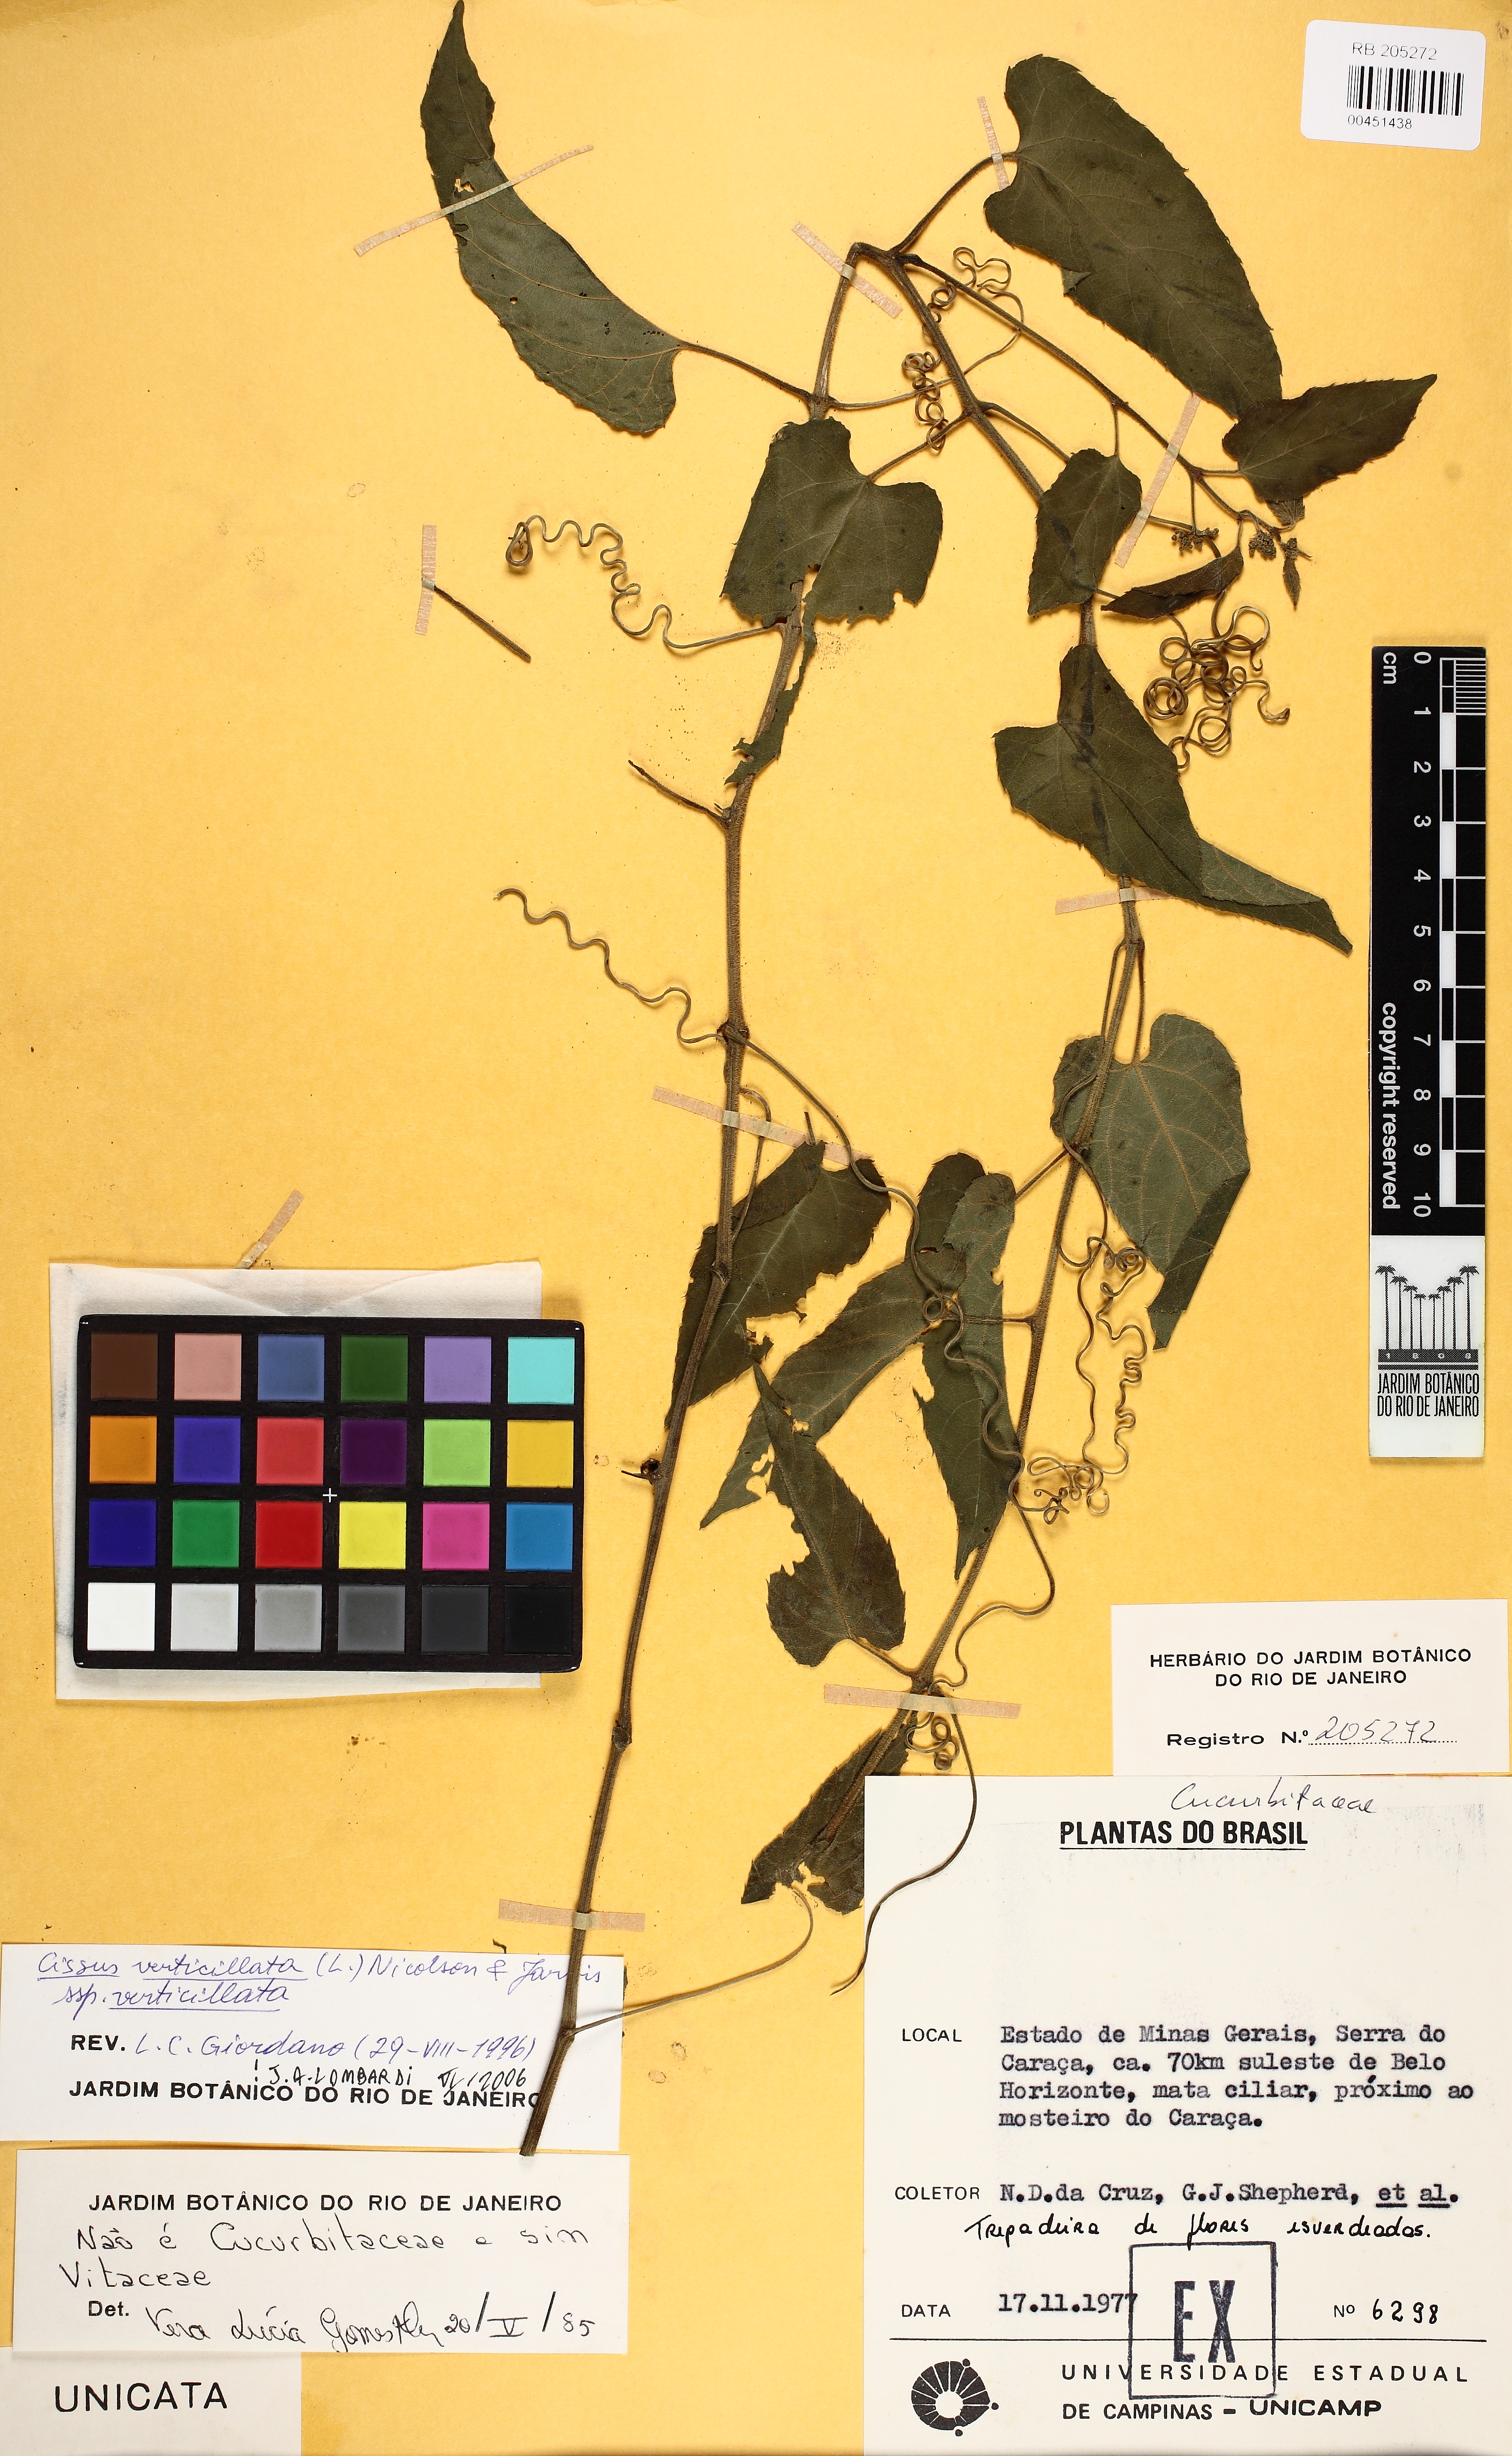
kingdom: Plantae
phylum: Tracheophyta
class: Magnoliopsida
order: Vitales
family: Vitaceae
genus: Cissus
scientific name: Cissus verticillata
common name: Princess vine
